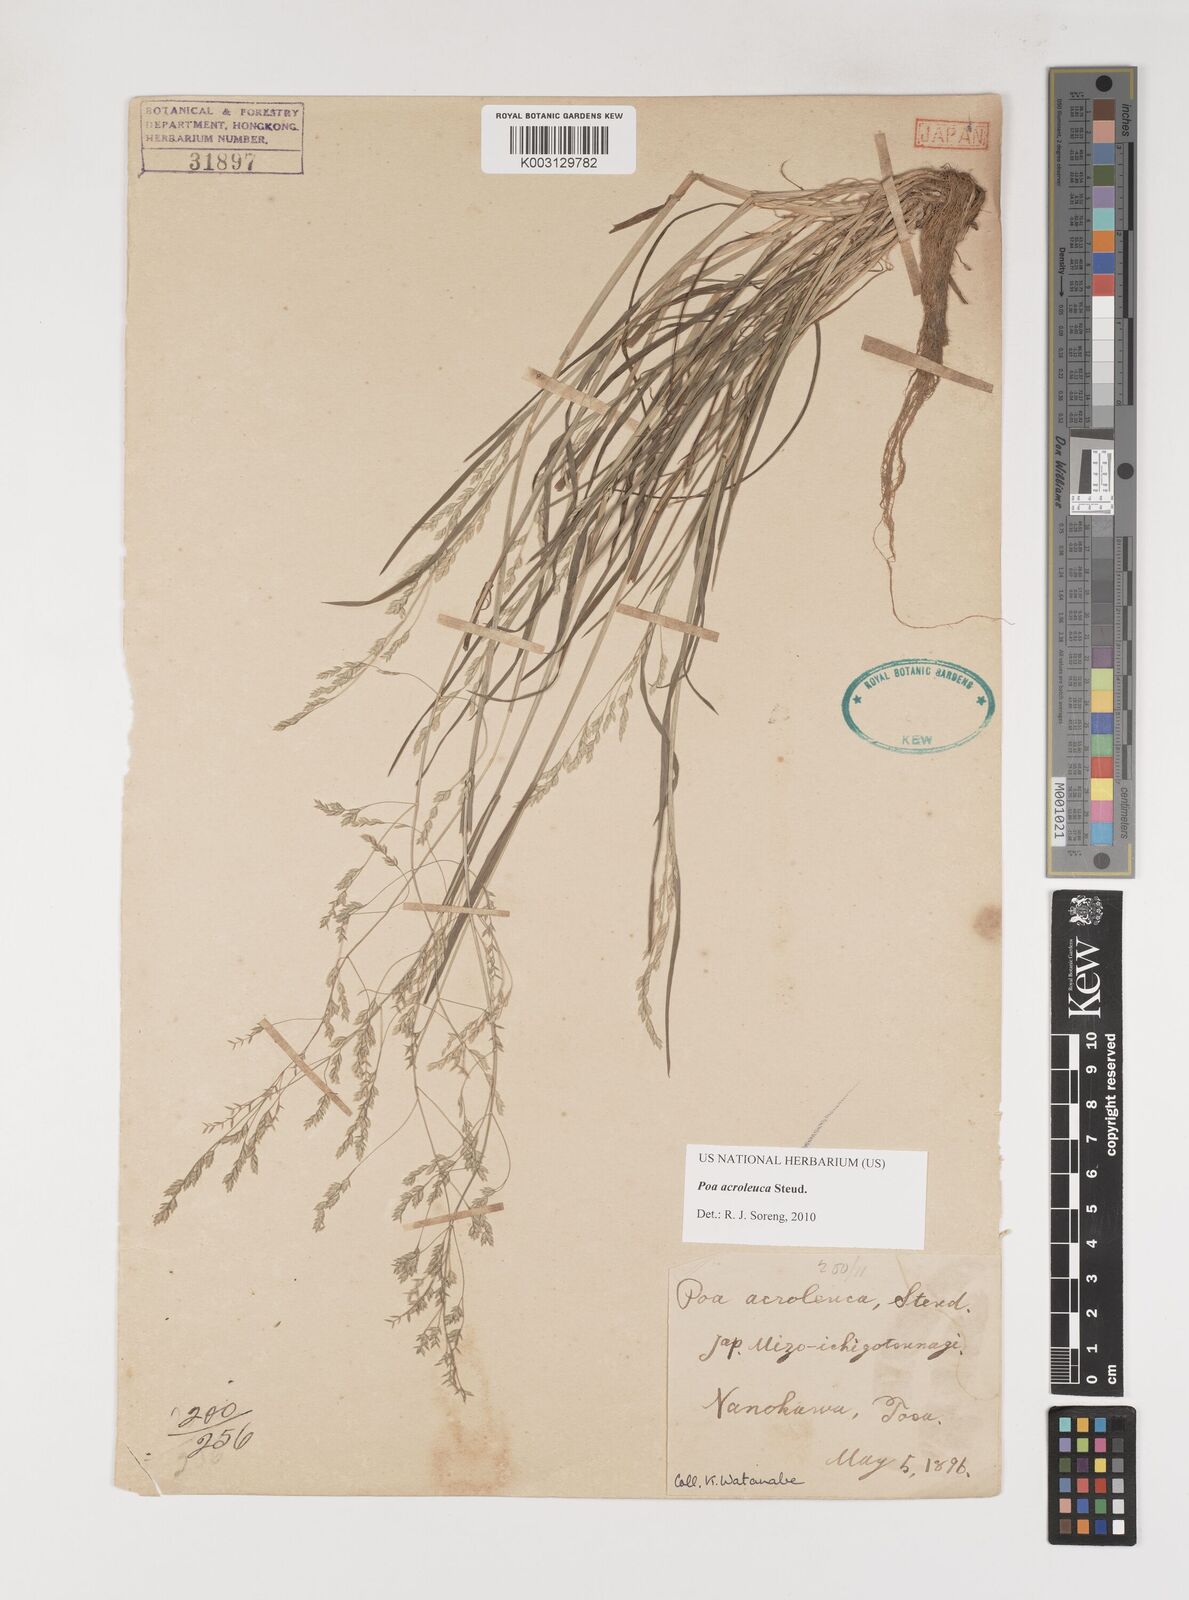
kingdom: Plantae
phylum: Tracheophyta
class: Liliopsida
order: Poales
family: Poaceae
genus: Poa
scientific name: Poa acroleuca
